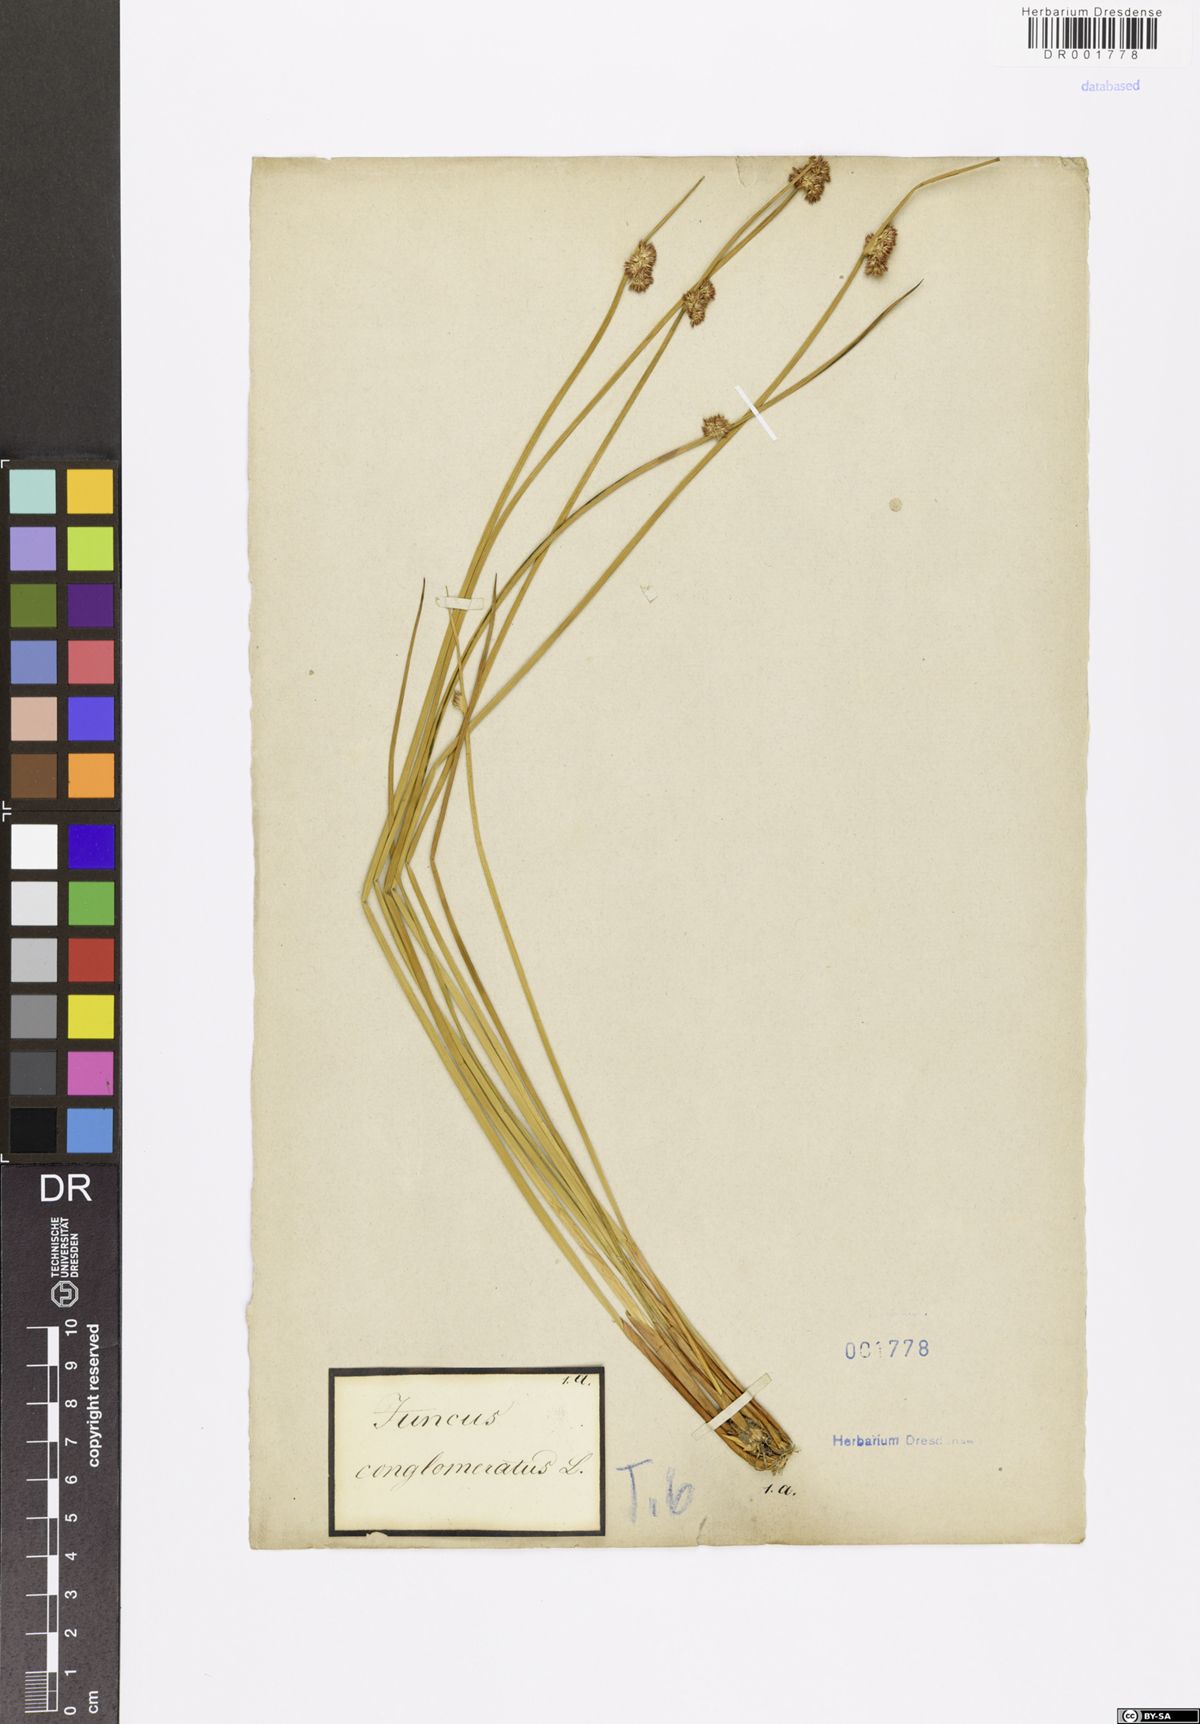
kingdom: Plantae
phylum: Tracheophyta
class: Liliopsida
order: Poales
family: Juncaceae
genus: Juncus
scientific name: Juncus conglomeratus
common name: Compact rush
